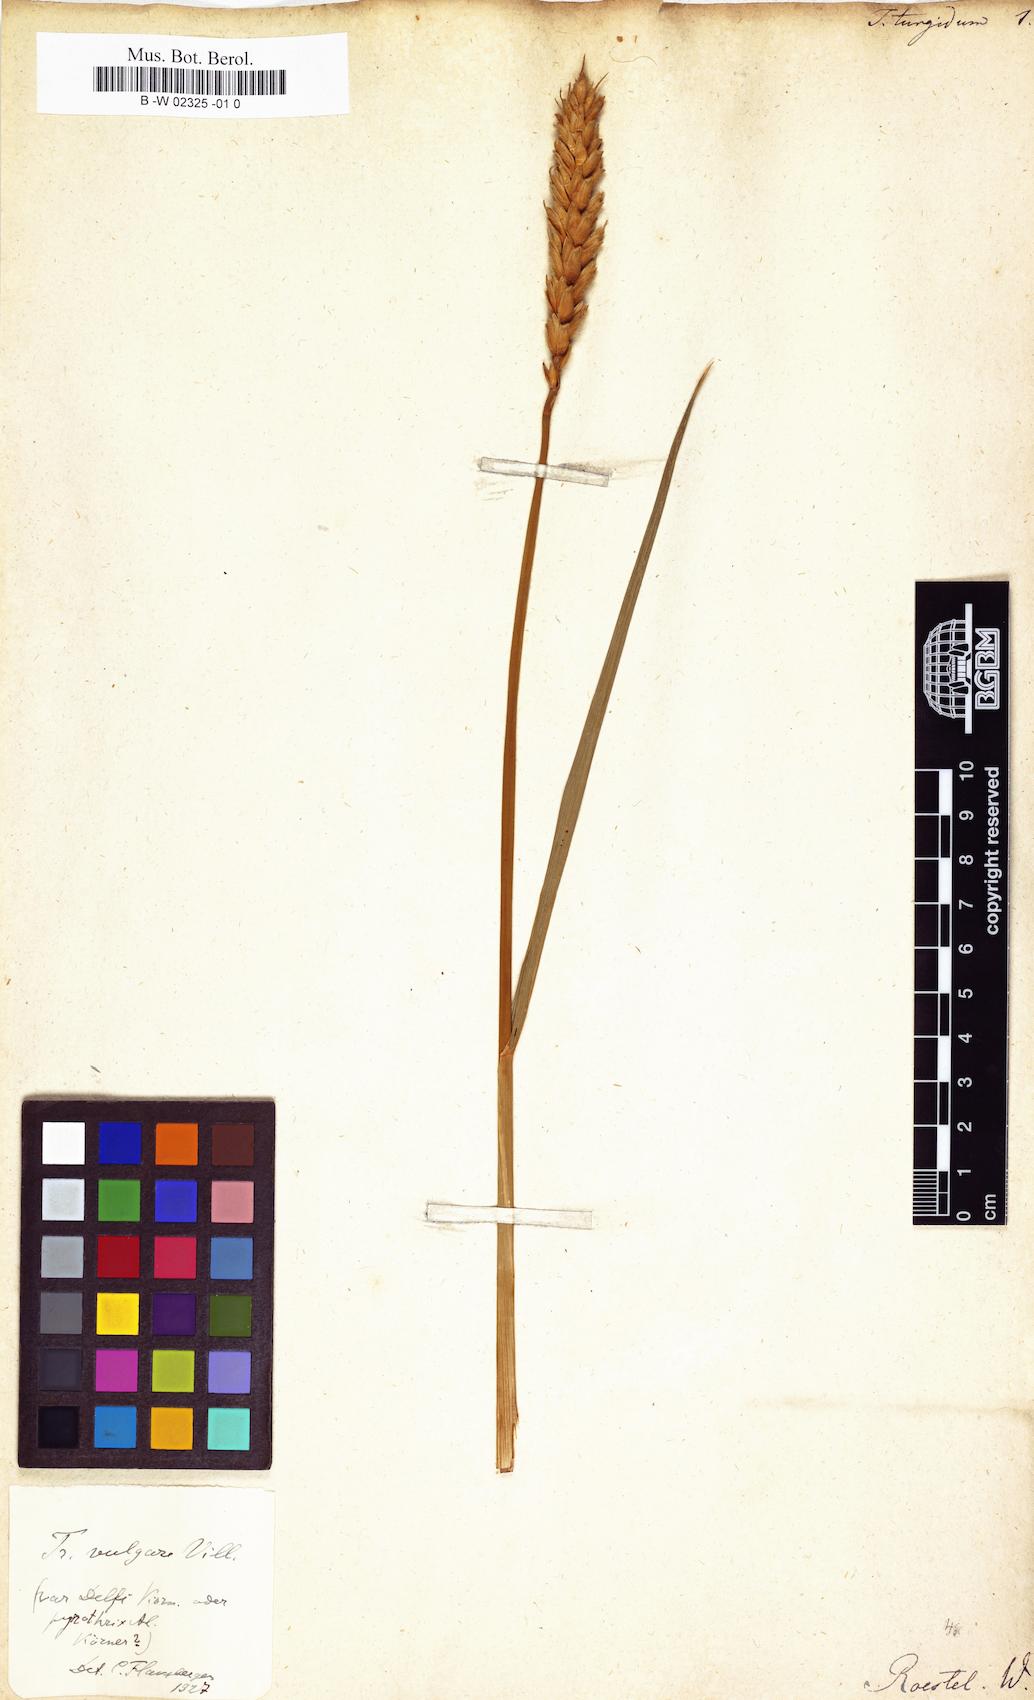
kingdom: Plantae
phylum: Tracheophyta
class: Liliopsida
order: Poales
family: Poaceae
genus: Triticum
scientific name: Triticum turgidum
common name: Rivet wheat
